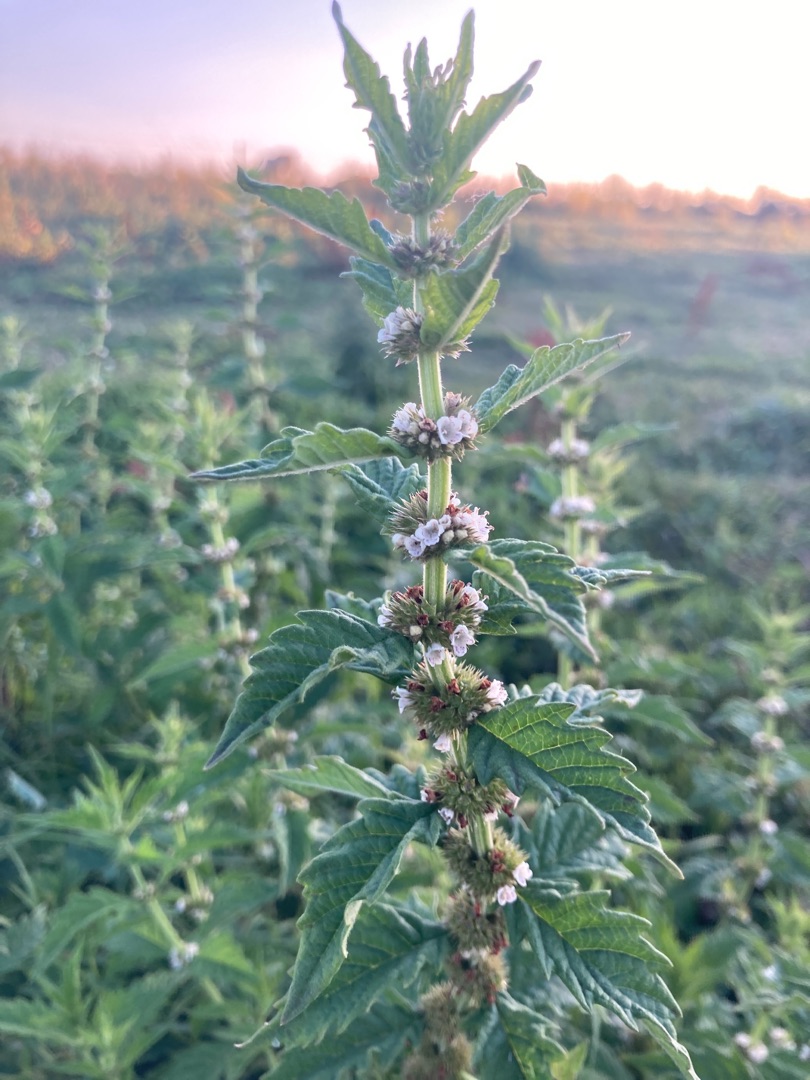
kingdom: Plantae
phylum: Tracheophyta
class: Magnoliopsida
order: Lamiales
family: Lamiaceae
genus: Lycopus
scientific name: Lycopus europaeus
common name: Sværtevæld
